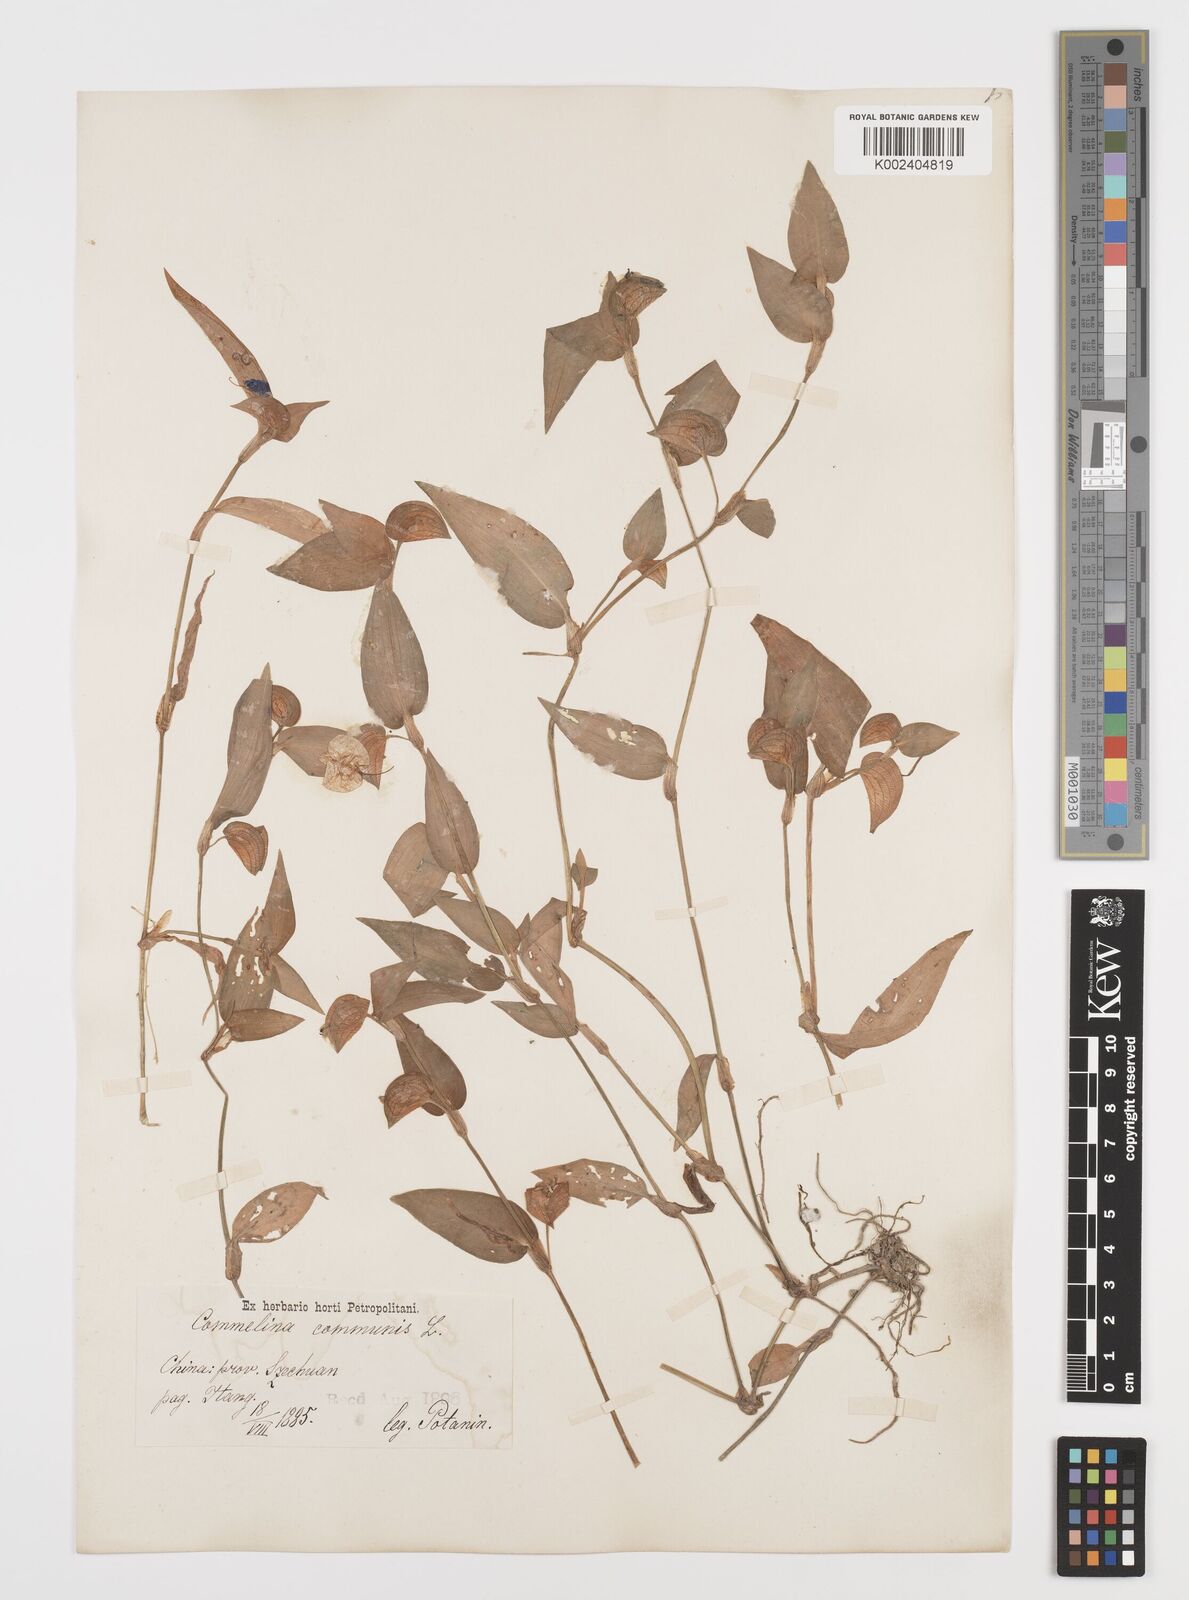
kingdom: Plantae
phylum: Tracheophyta
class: Liliopsida
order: Commelinales
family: Commelinaceae
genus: Commelina
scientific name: Commelina communis
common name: Asiatic dayflower
